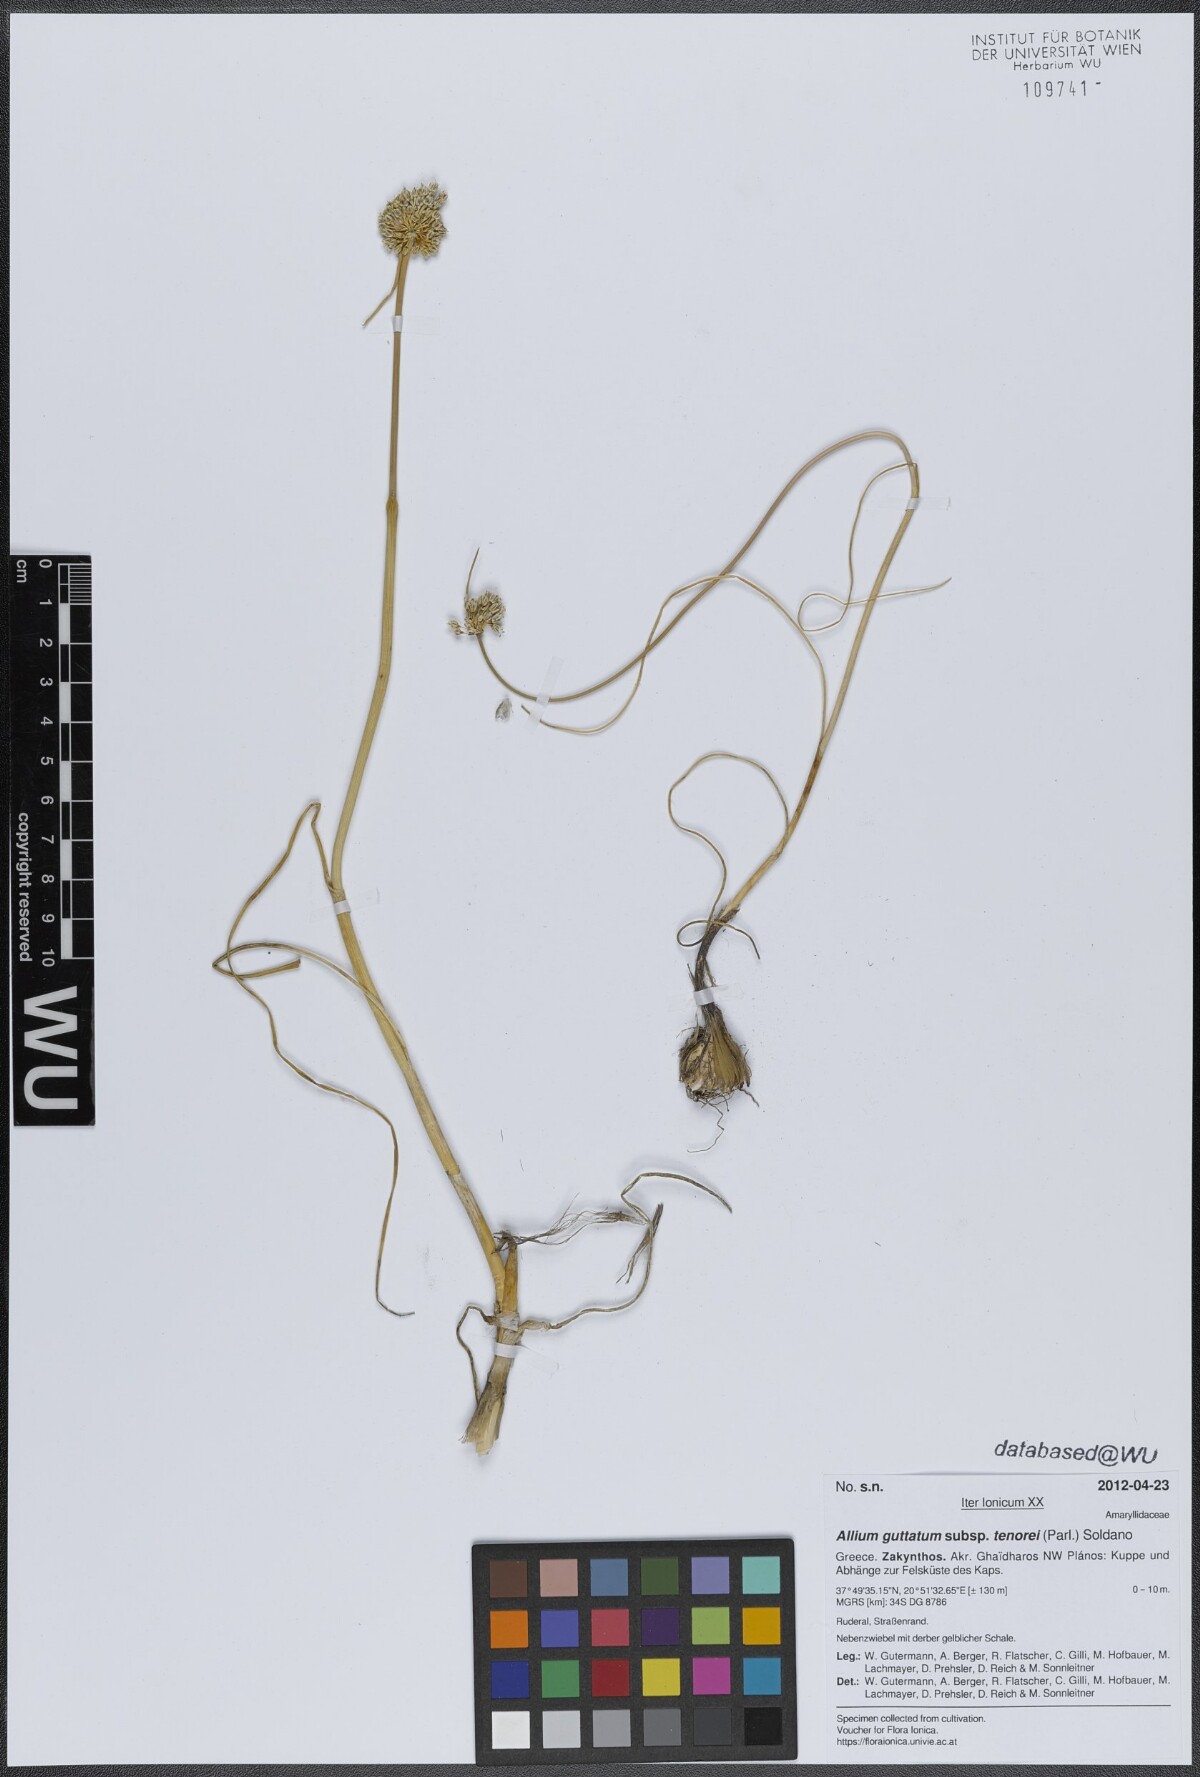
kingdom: Plantae
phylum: Tracheophyta
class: Liliopsida
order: Asparagales
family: Amaryllidaceae
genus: Allium
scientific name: Allium sardoum
